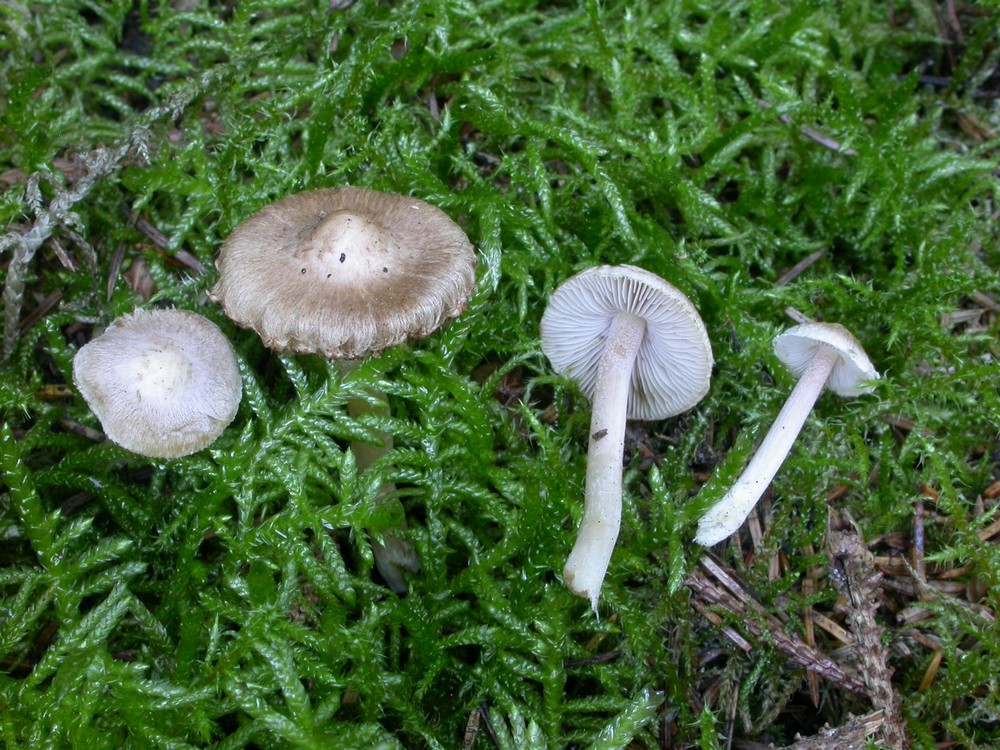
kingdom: Fungi
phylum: Basidiomycota
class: Agaricomycetes
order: Agaricales
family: Inocybaceae
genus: Inocybe
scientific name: Inocybe
